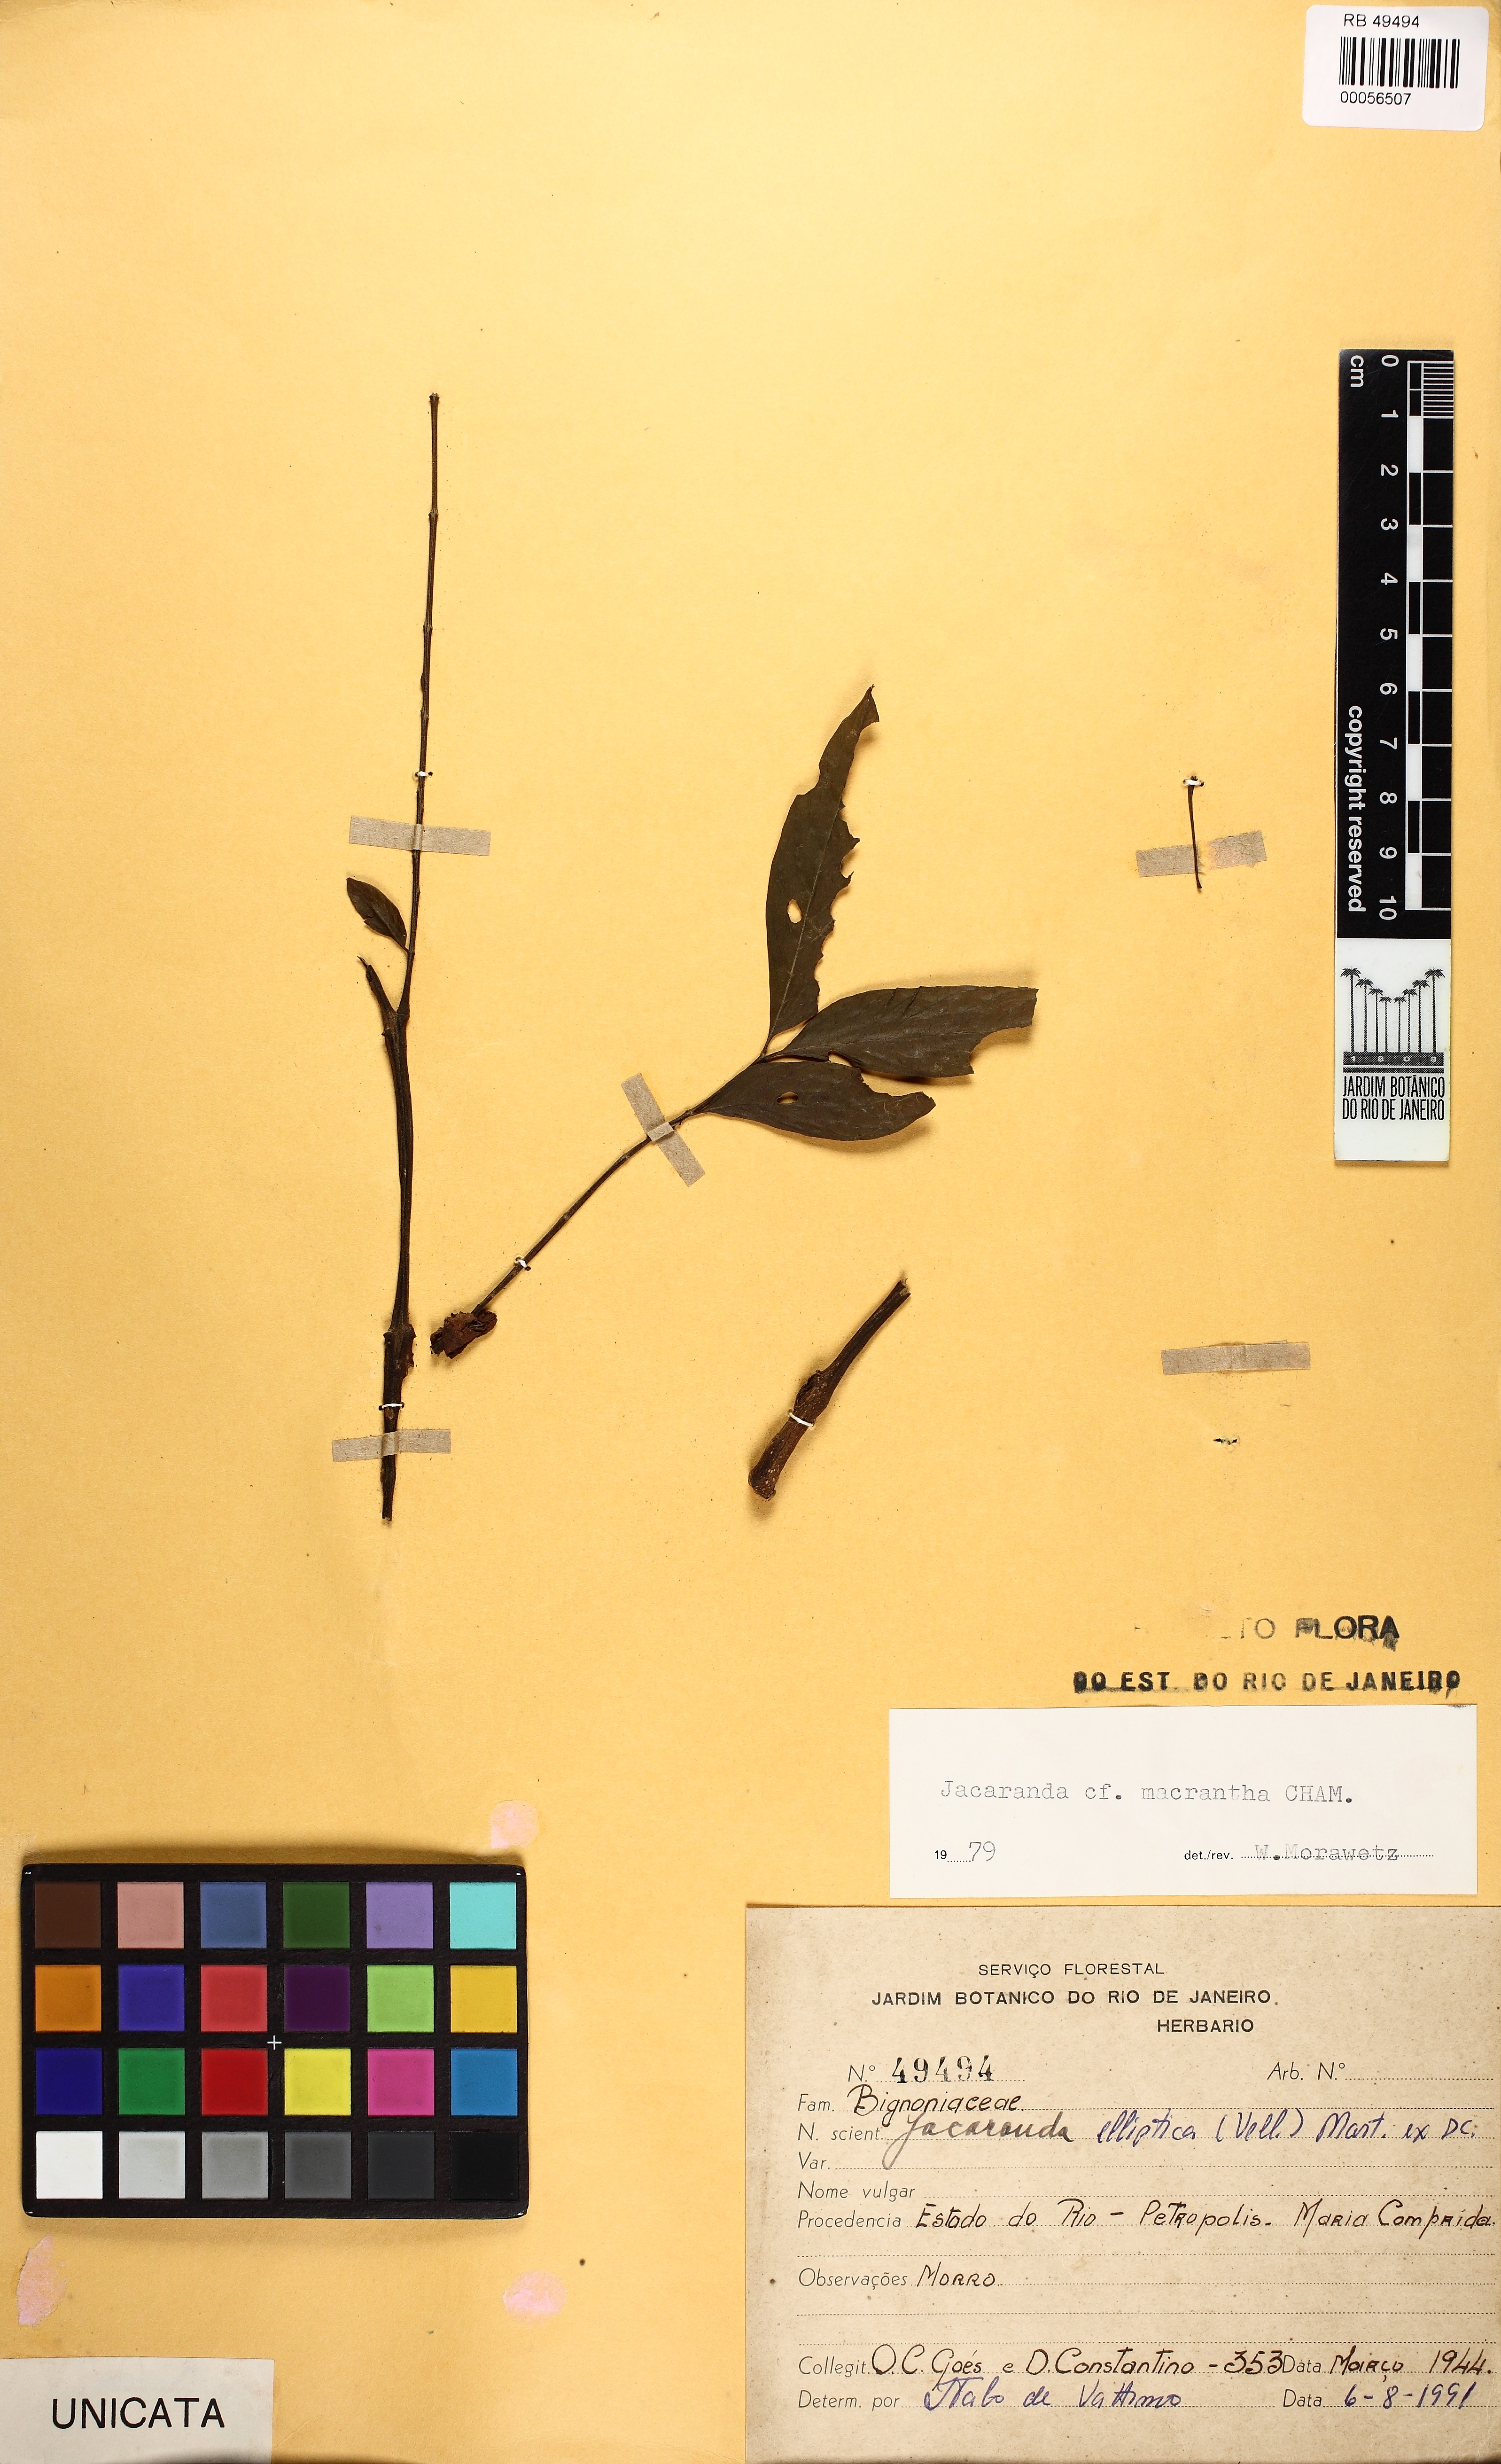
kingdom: Plantae
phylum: Tracheophyta
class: Magnoliopsida
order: Lamiales
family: Bignoniaceae
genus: Jacaranda
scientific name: Jacaranda macrantha
